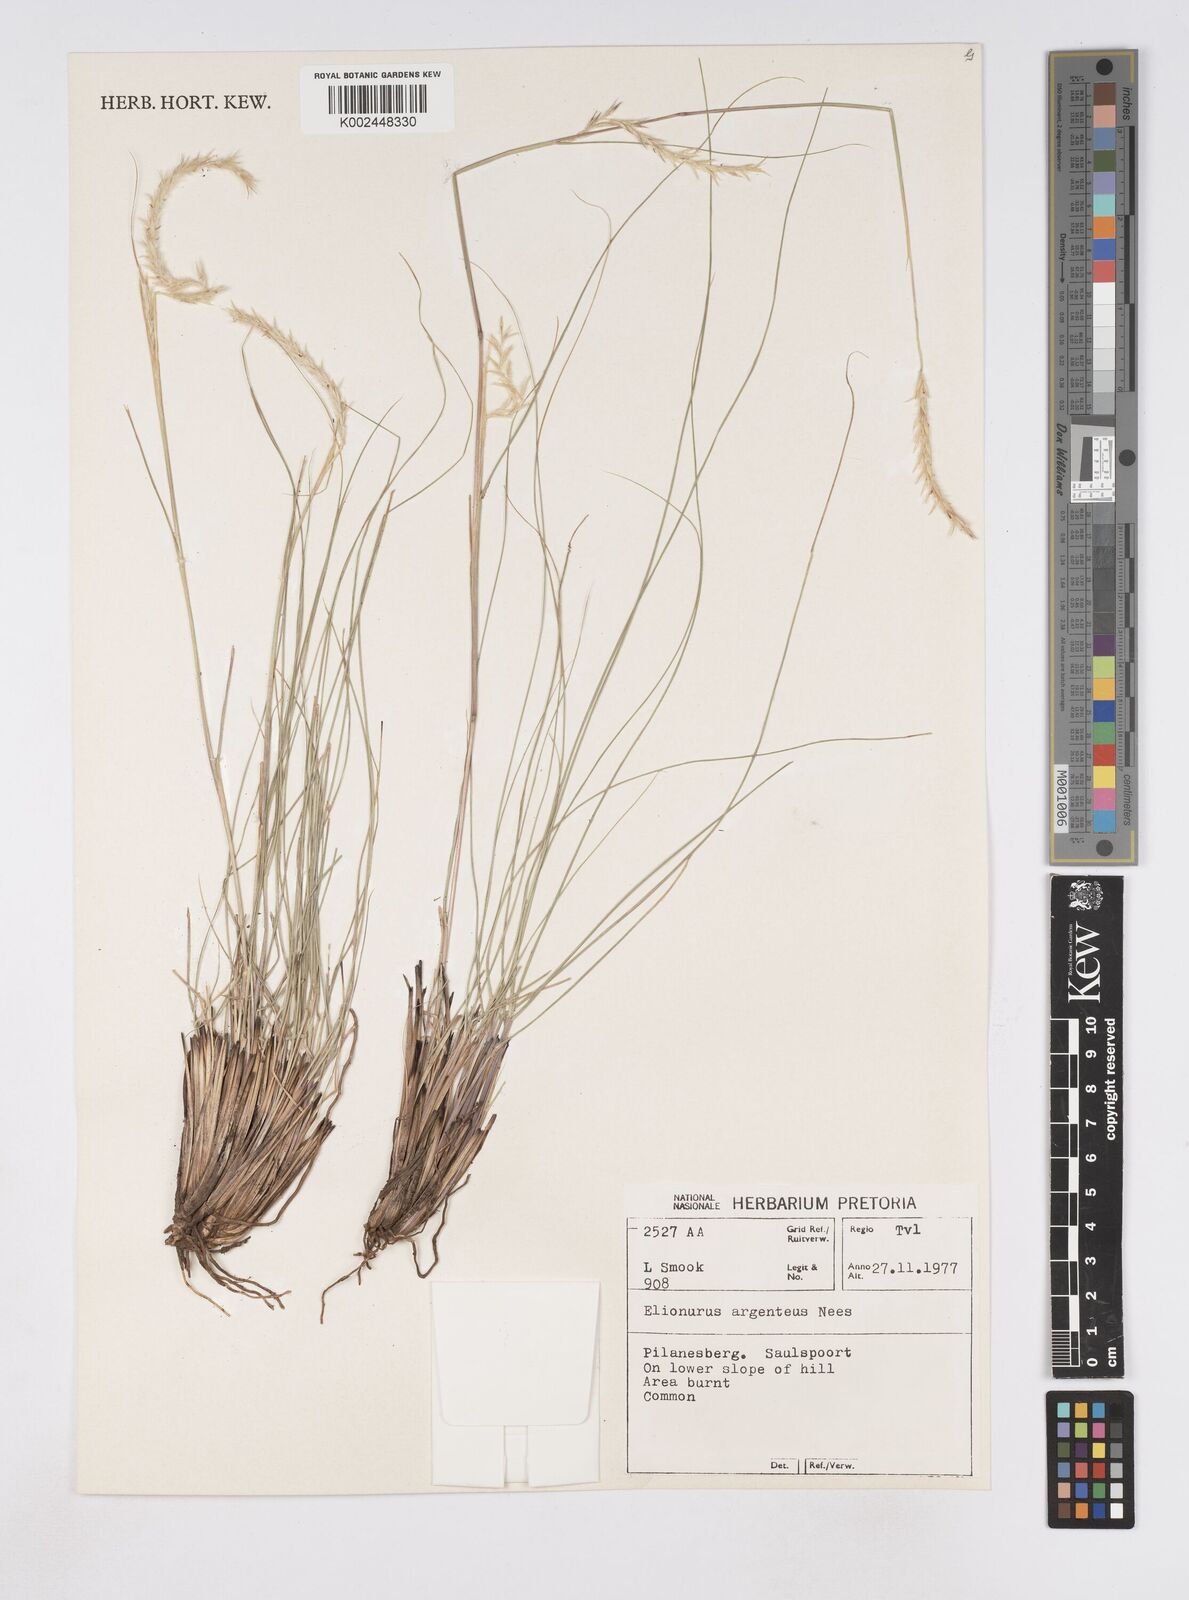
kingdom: Plantae
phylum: Tracheophyta
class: Liliopsida
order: Poales
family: Poaceae
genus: Elionurus
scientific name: Elionurus muticus
